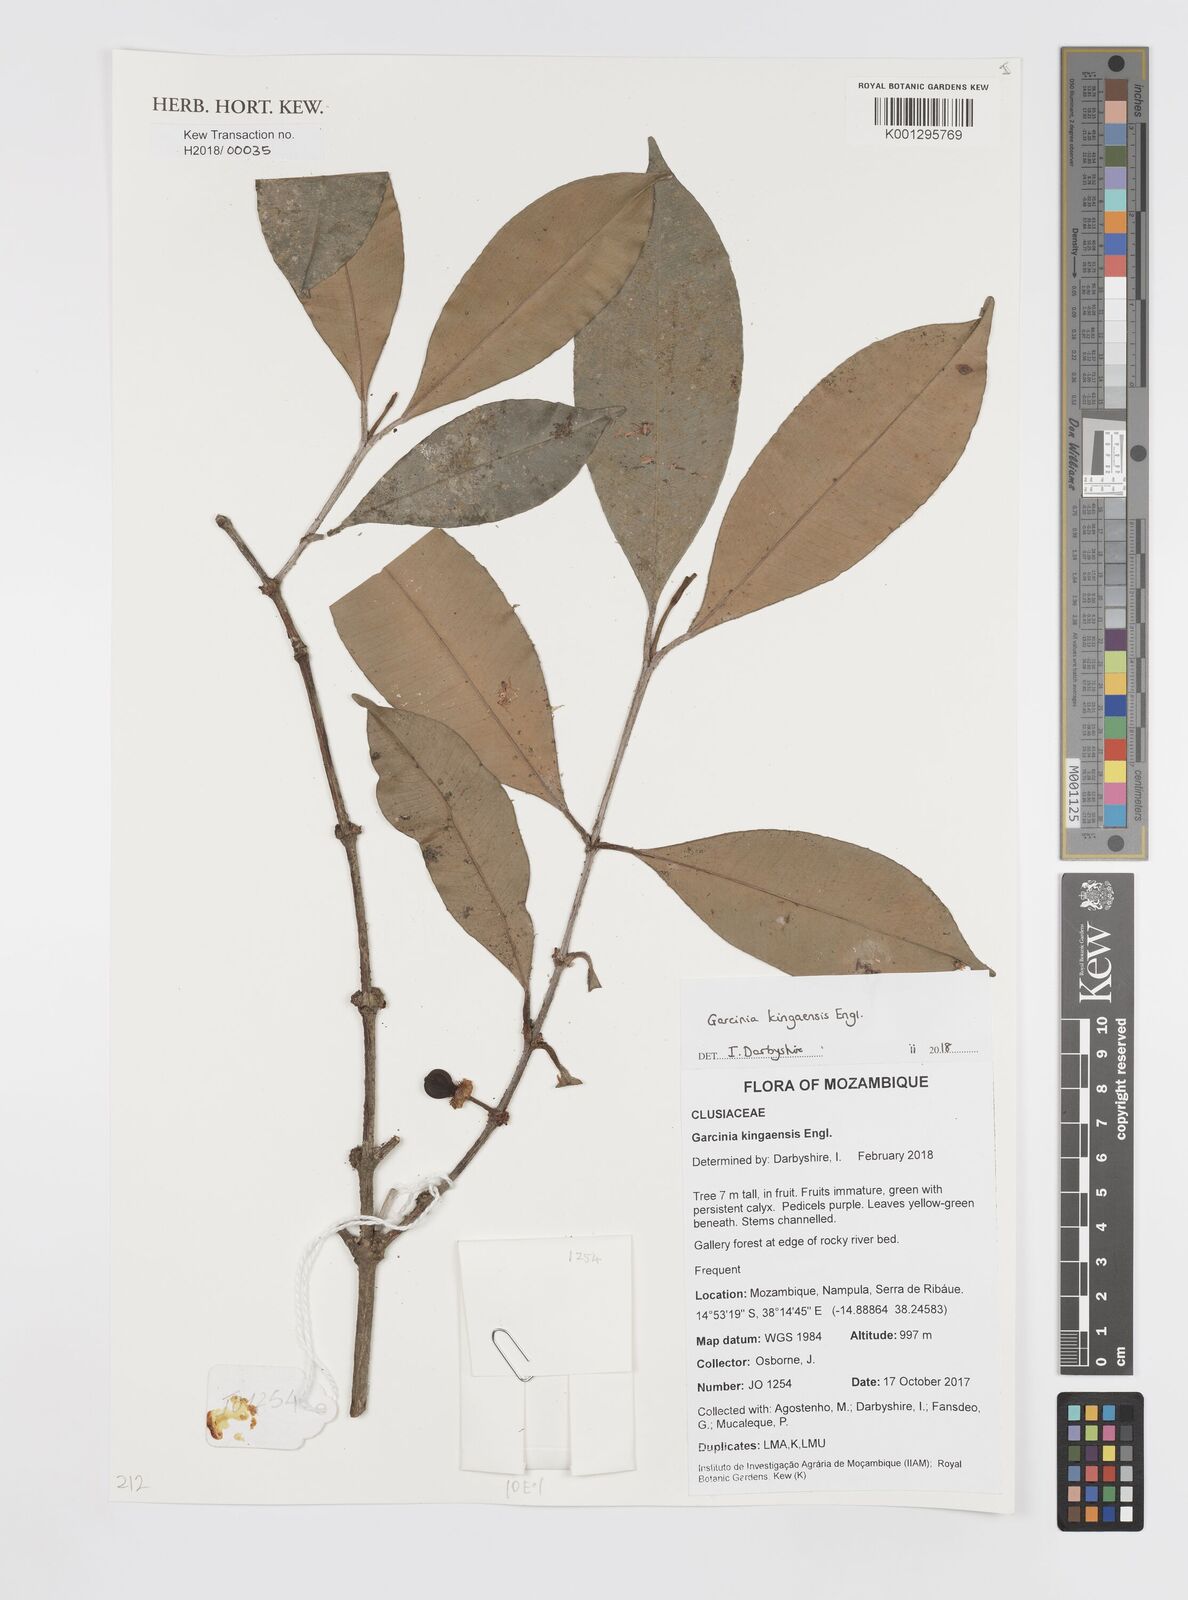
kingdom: Plantae
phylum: Tracheophyta
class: Magnoliopsida
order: Malpighiales
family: Clusiaceae
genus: Garcinia
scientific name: Garcinia kingaensis
